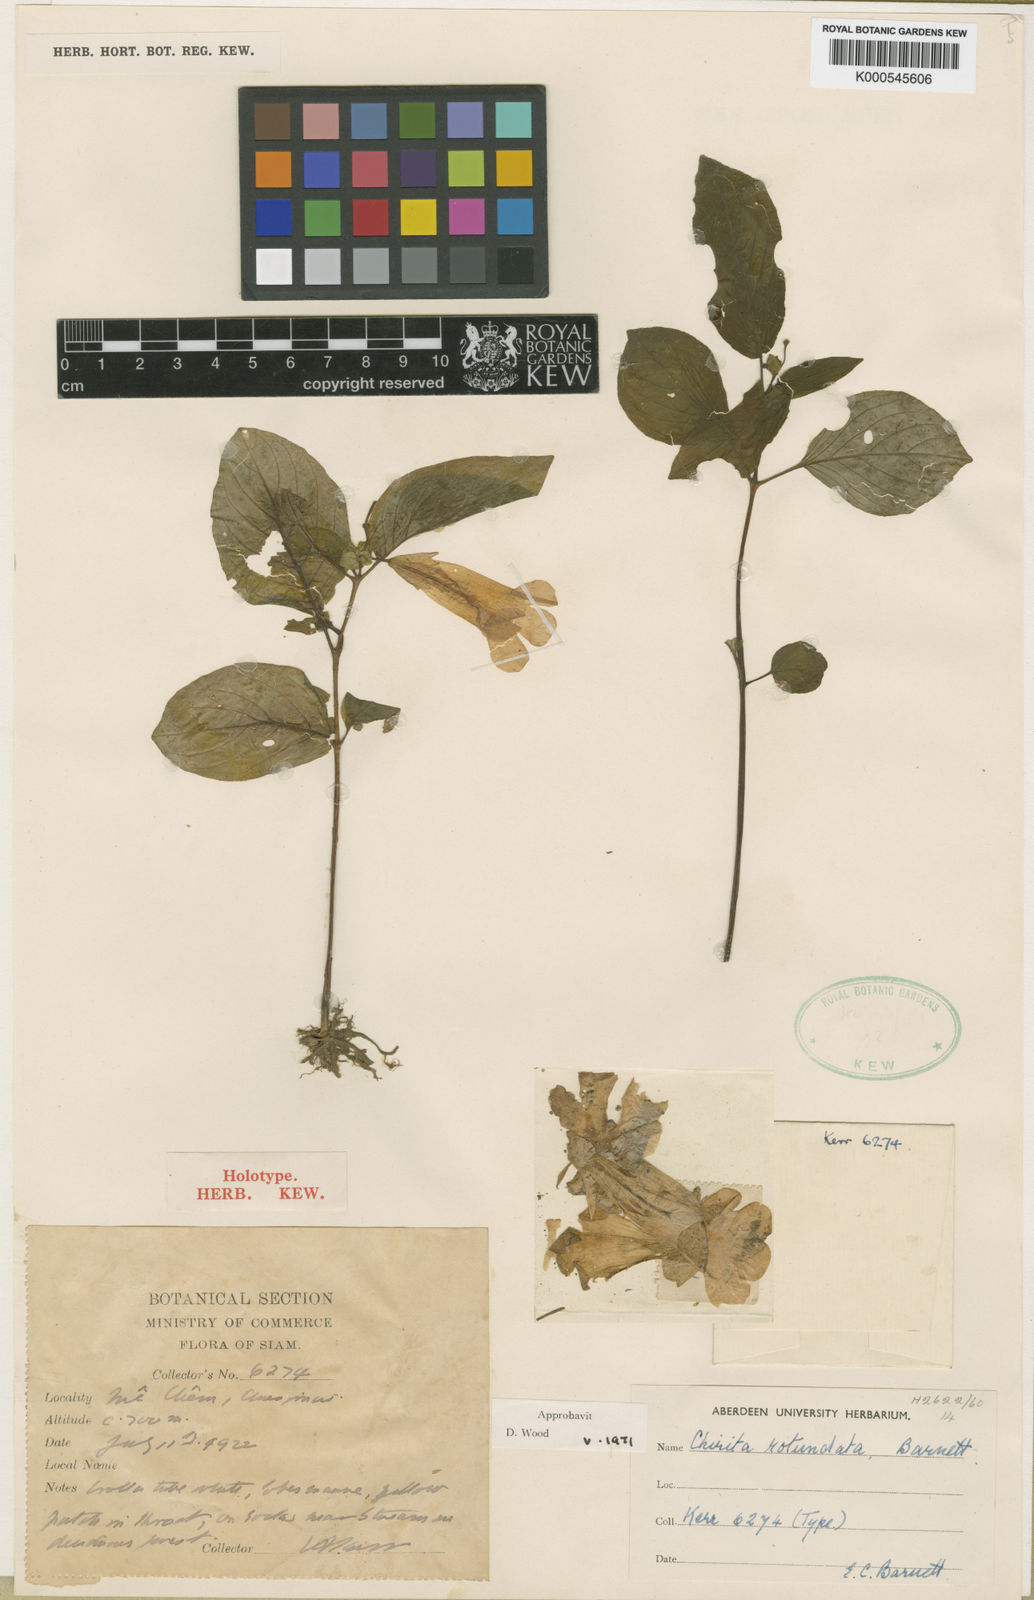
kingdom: Plantae
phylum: Tracheophyta
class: Magnoliopsida
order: Lamiales
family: Gesneriaceae
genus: Henckelia
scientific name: Henckelia
